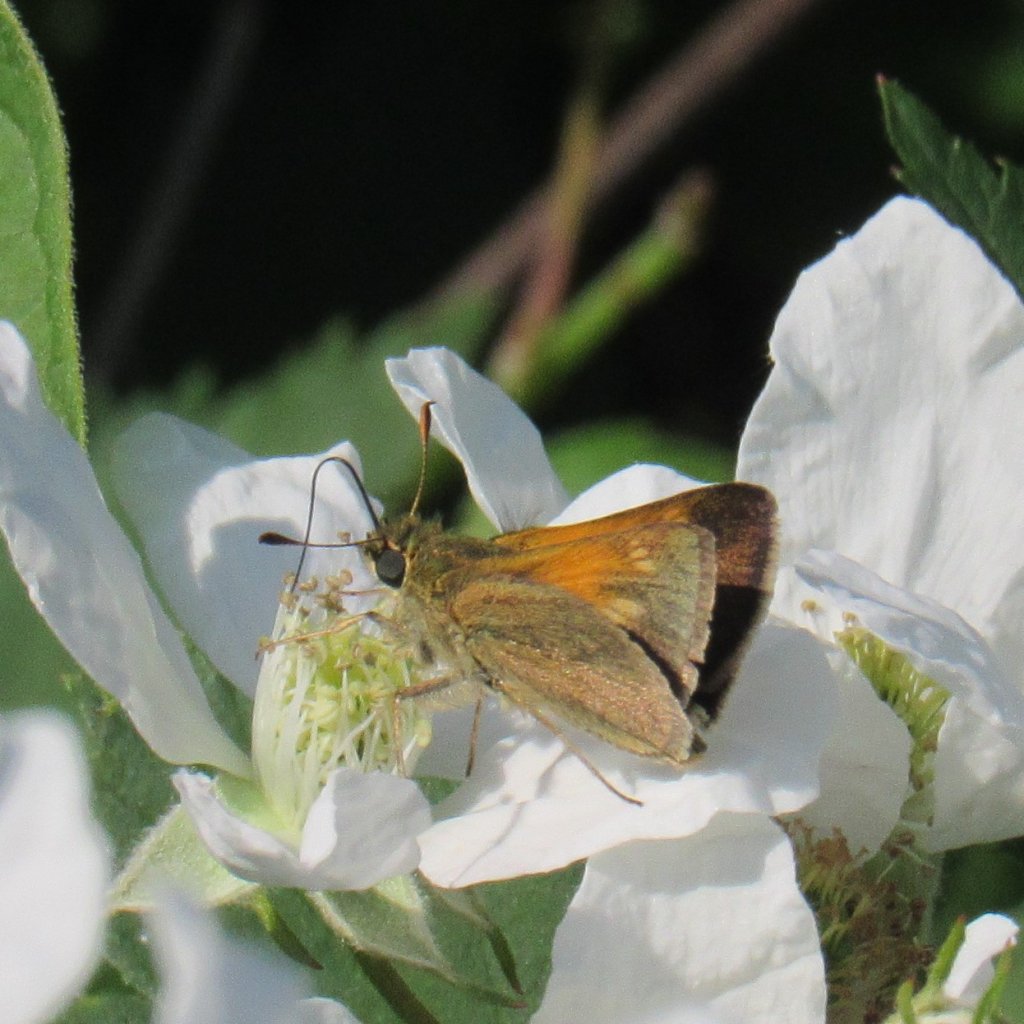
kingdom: Animalia
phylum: Arthropoda
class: Insecta
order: Lepidoptera
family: Hesperiidae
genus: Polites
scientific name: Polites themistocles
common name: Tawny-edged Skipper
